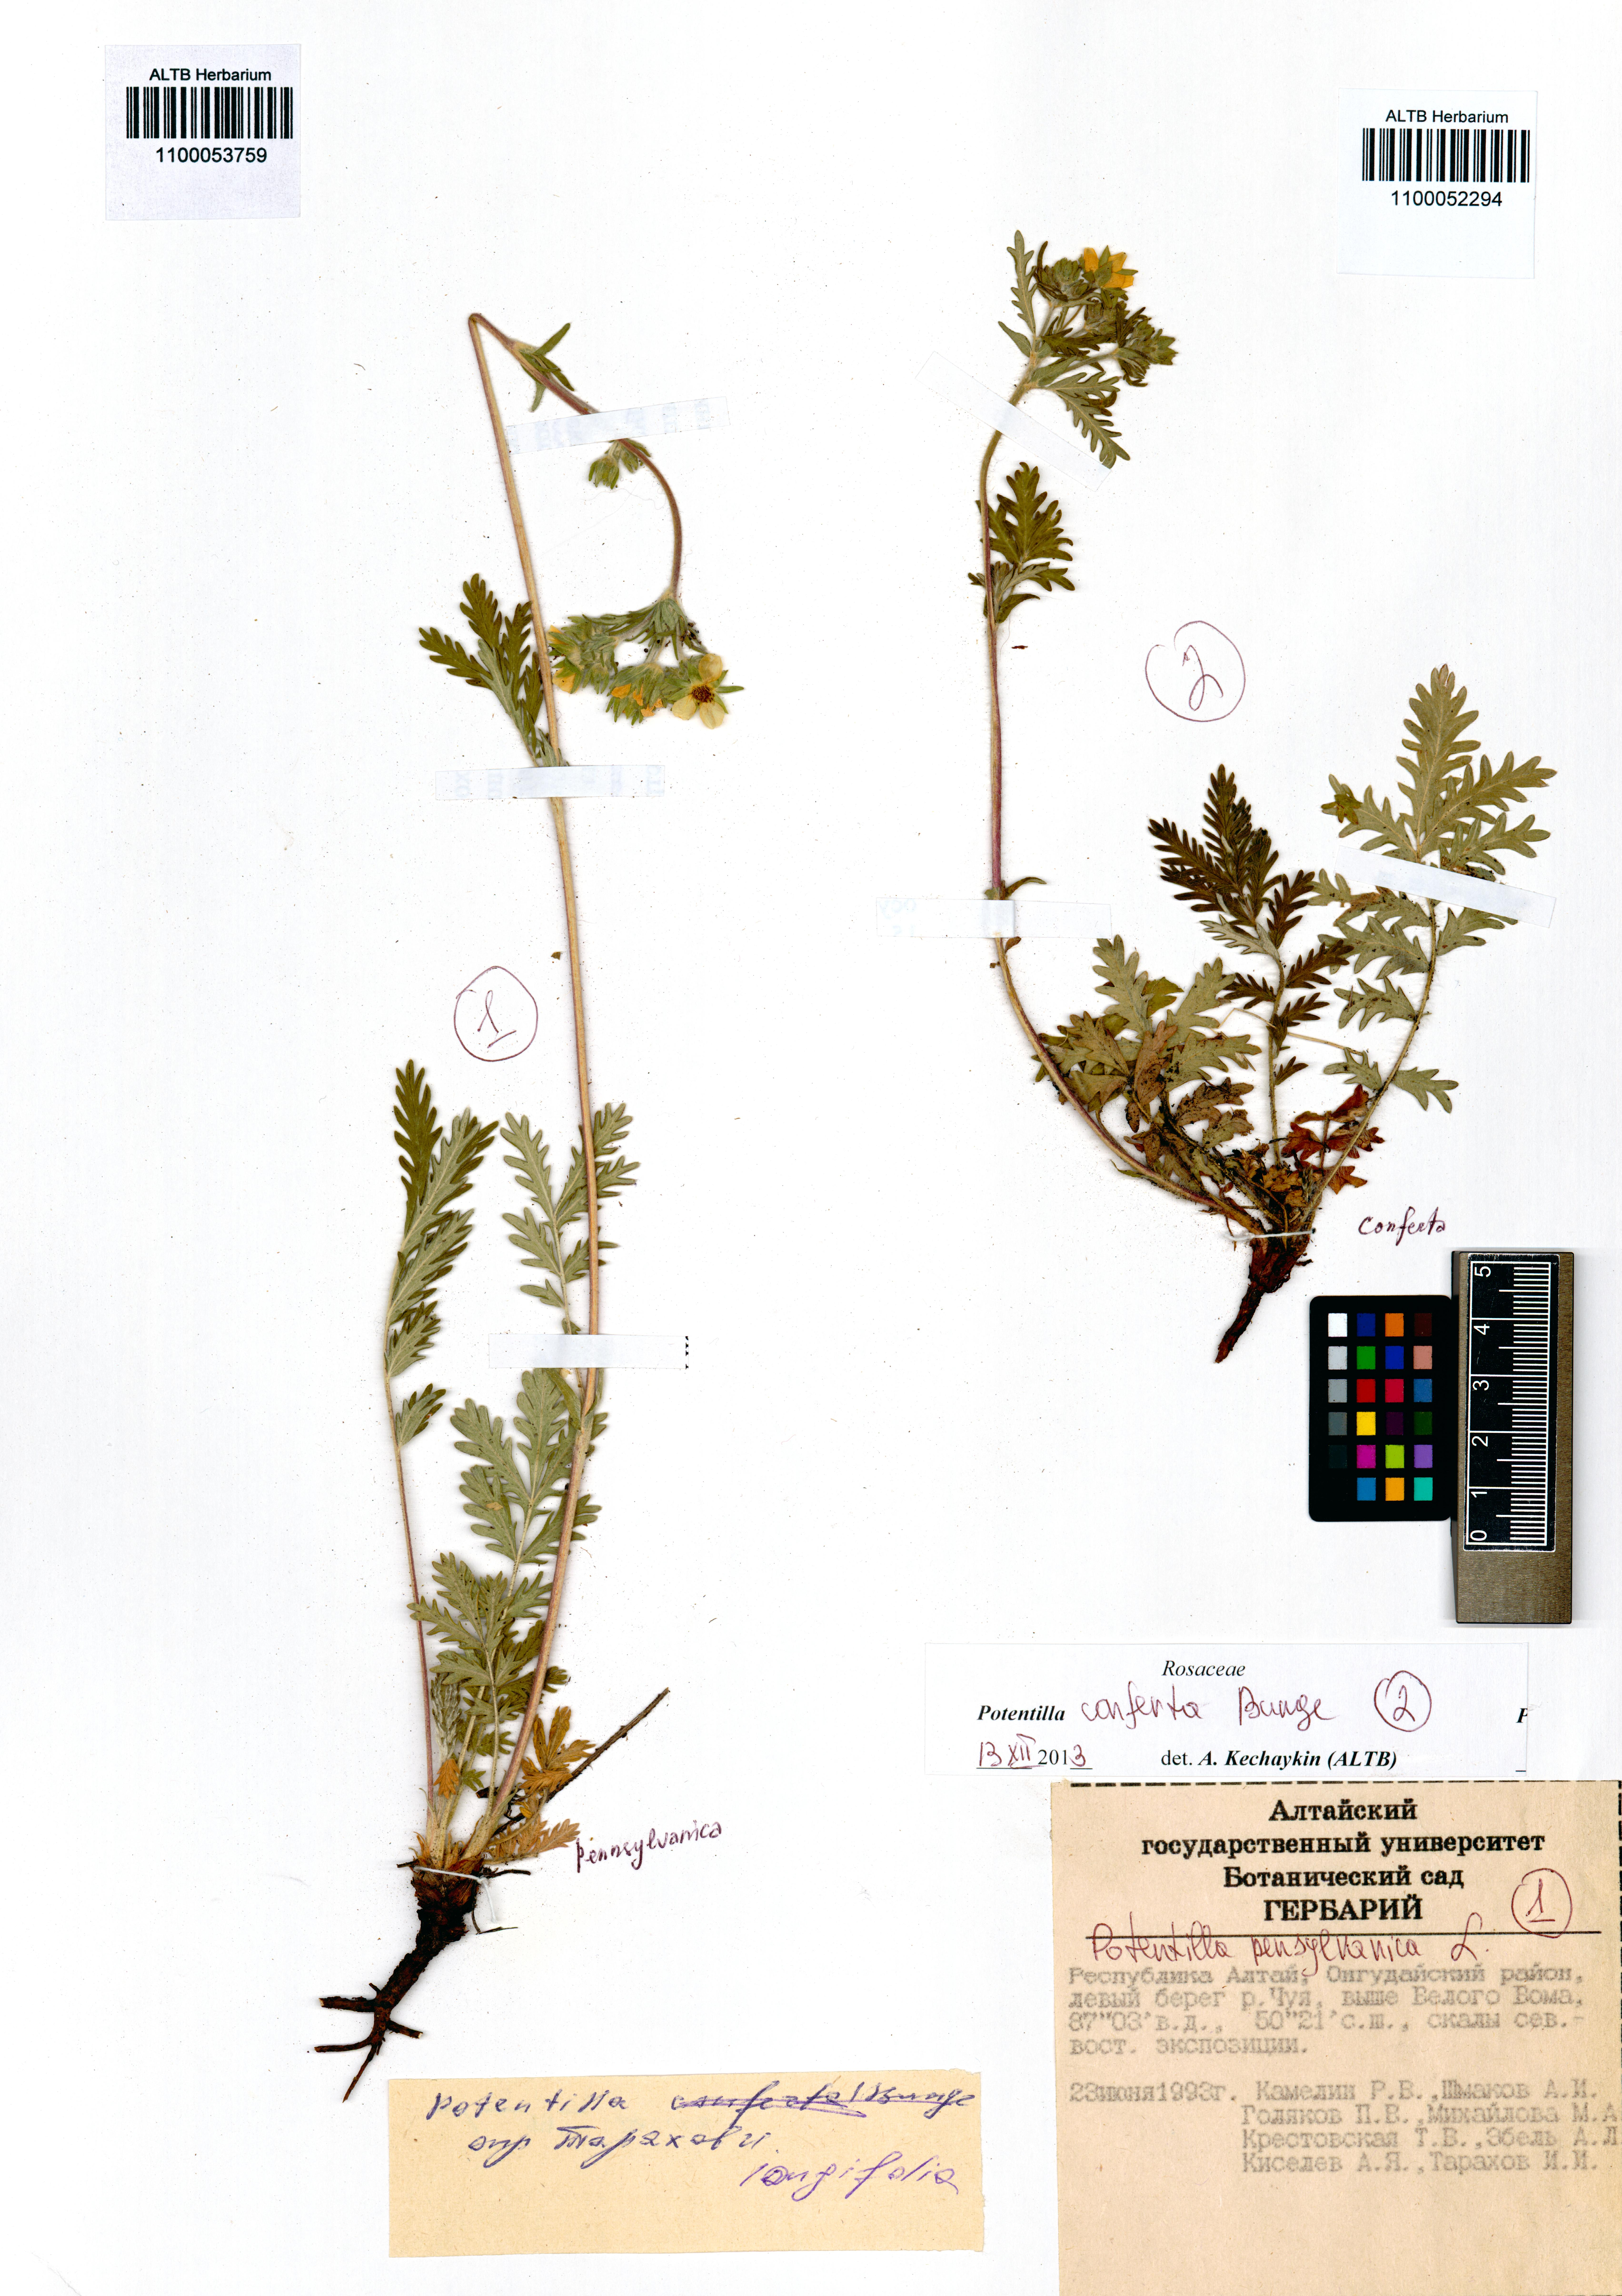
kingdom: Plantae
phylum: Tracheophyta
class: Magnoliopsida
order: Rosales
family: Rosaceae
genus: Potentilla
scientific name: Potentilla conferta
